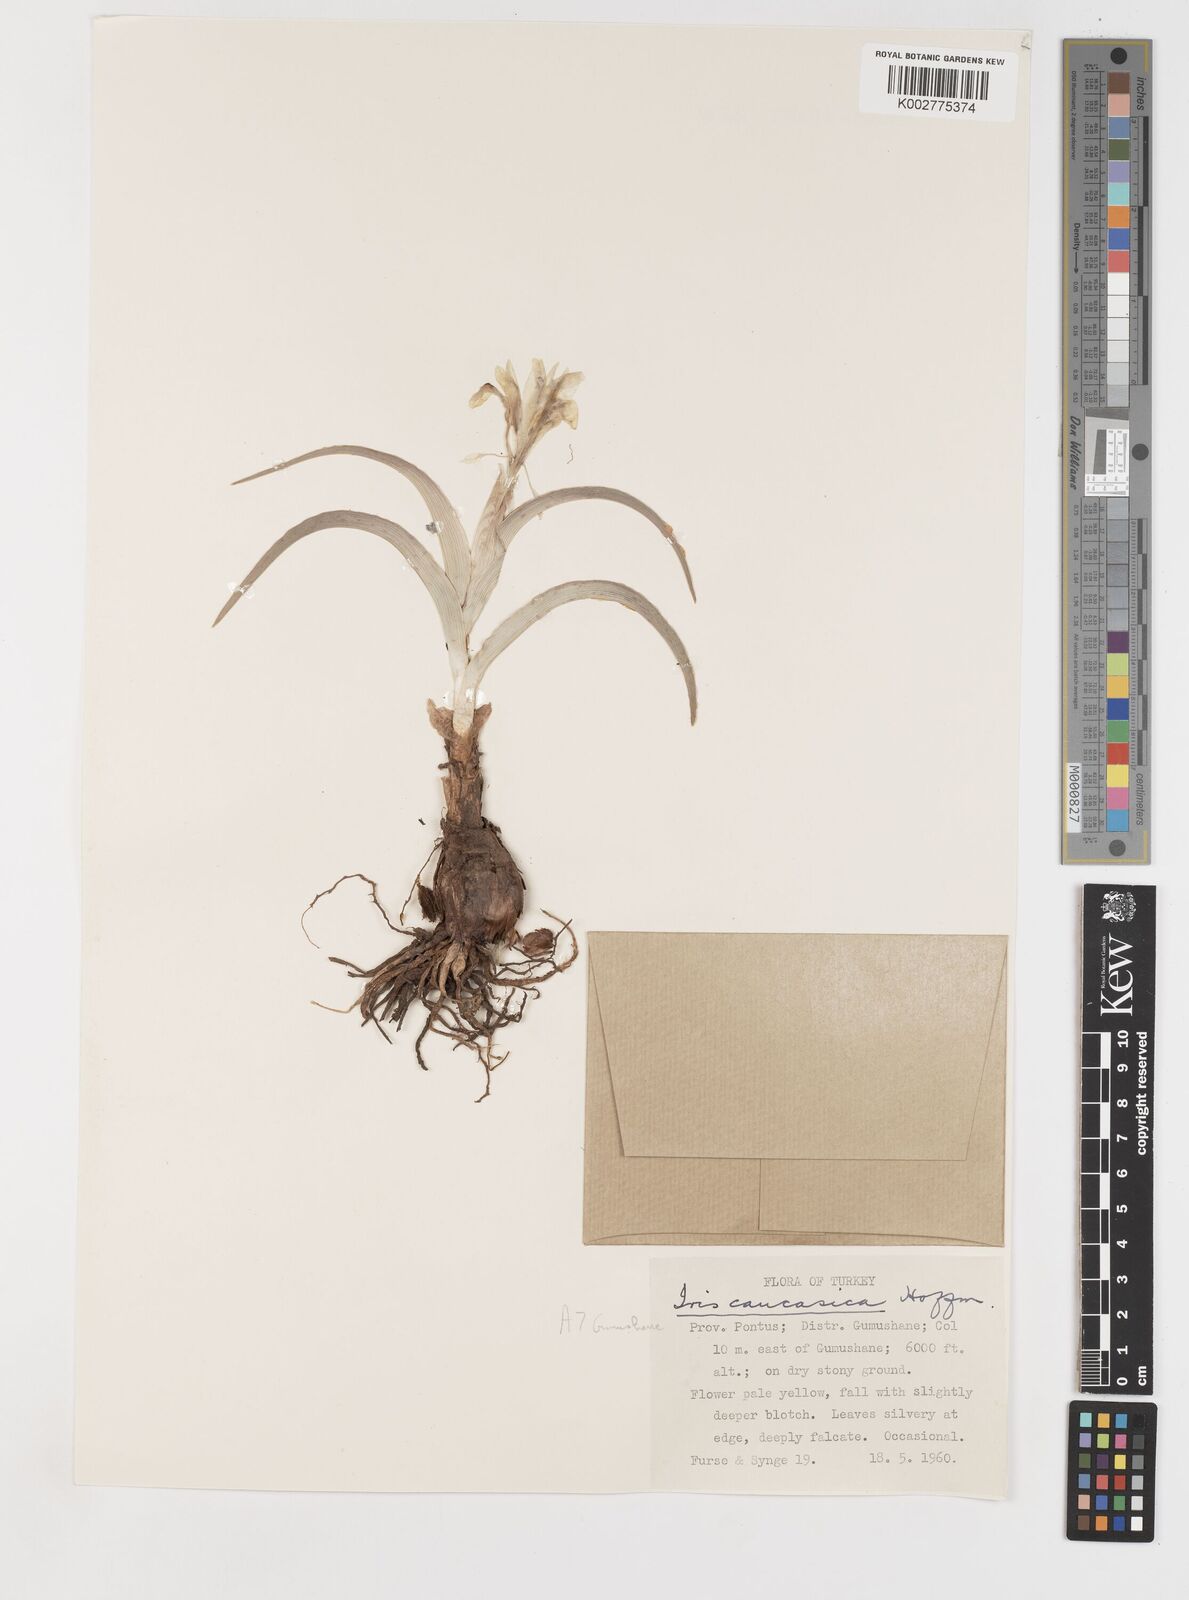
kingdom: Plantae
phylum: Tracheophyta
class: Liliopsida
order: Asparagales
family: Iridaceae
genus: Iris
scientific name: Iris caucasica
